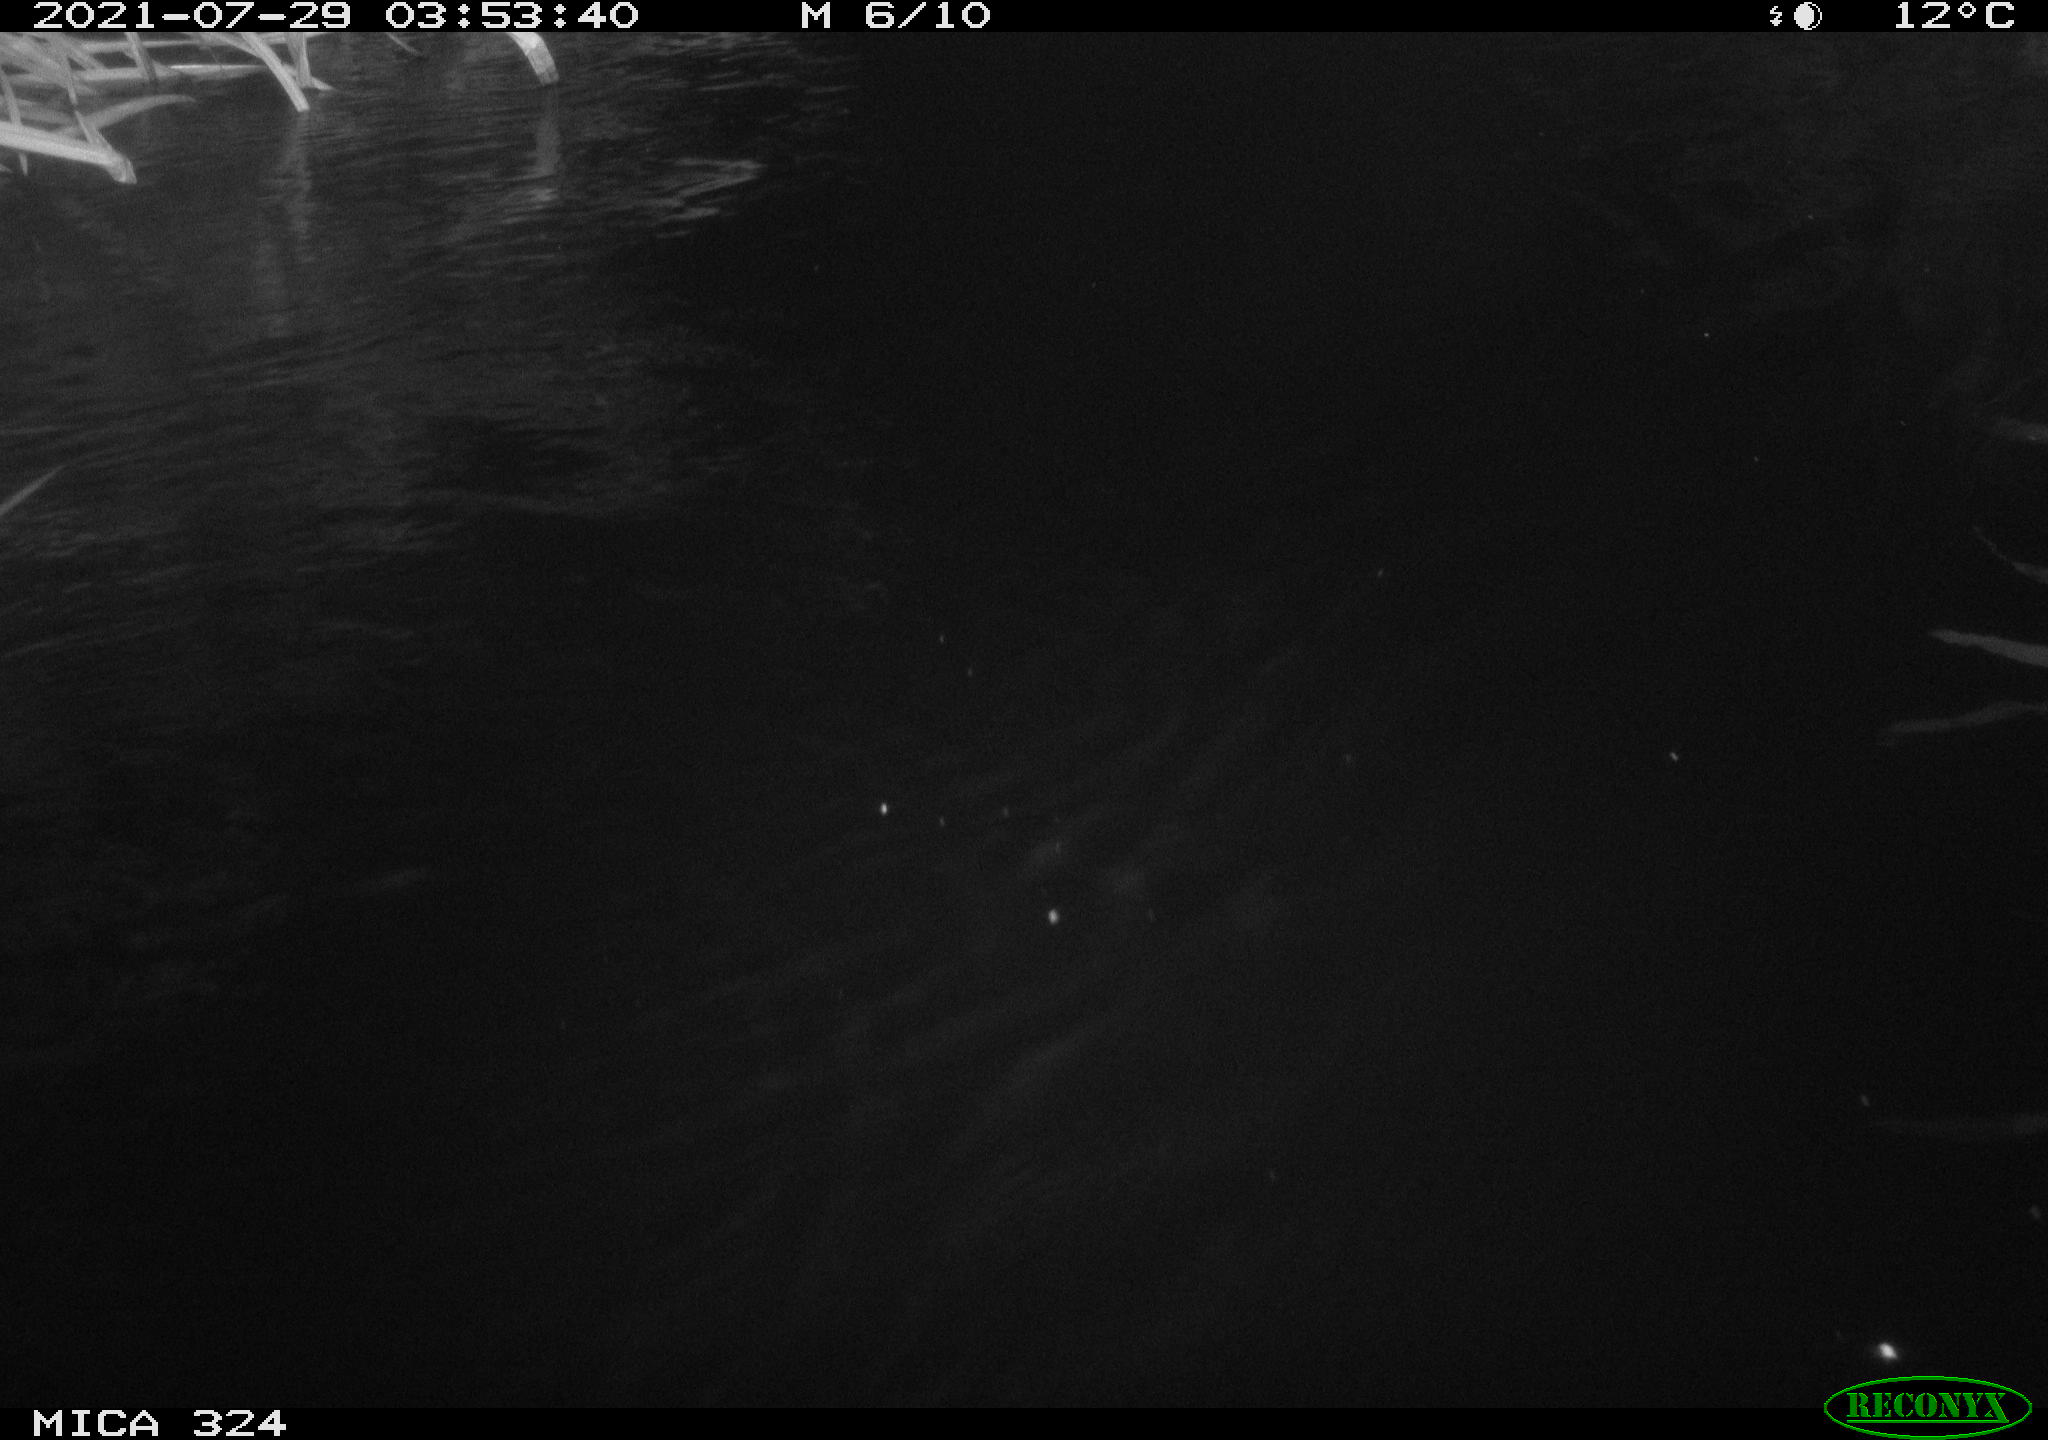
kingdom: Animalia
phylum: Chordata
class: Mammalia
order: Rodentia
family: Cricetidae
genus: Ondatra
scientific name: Ondatra zibethicus
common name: Muskrat
